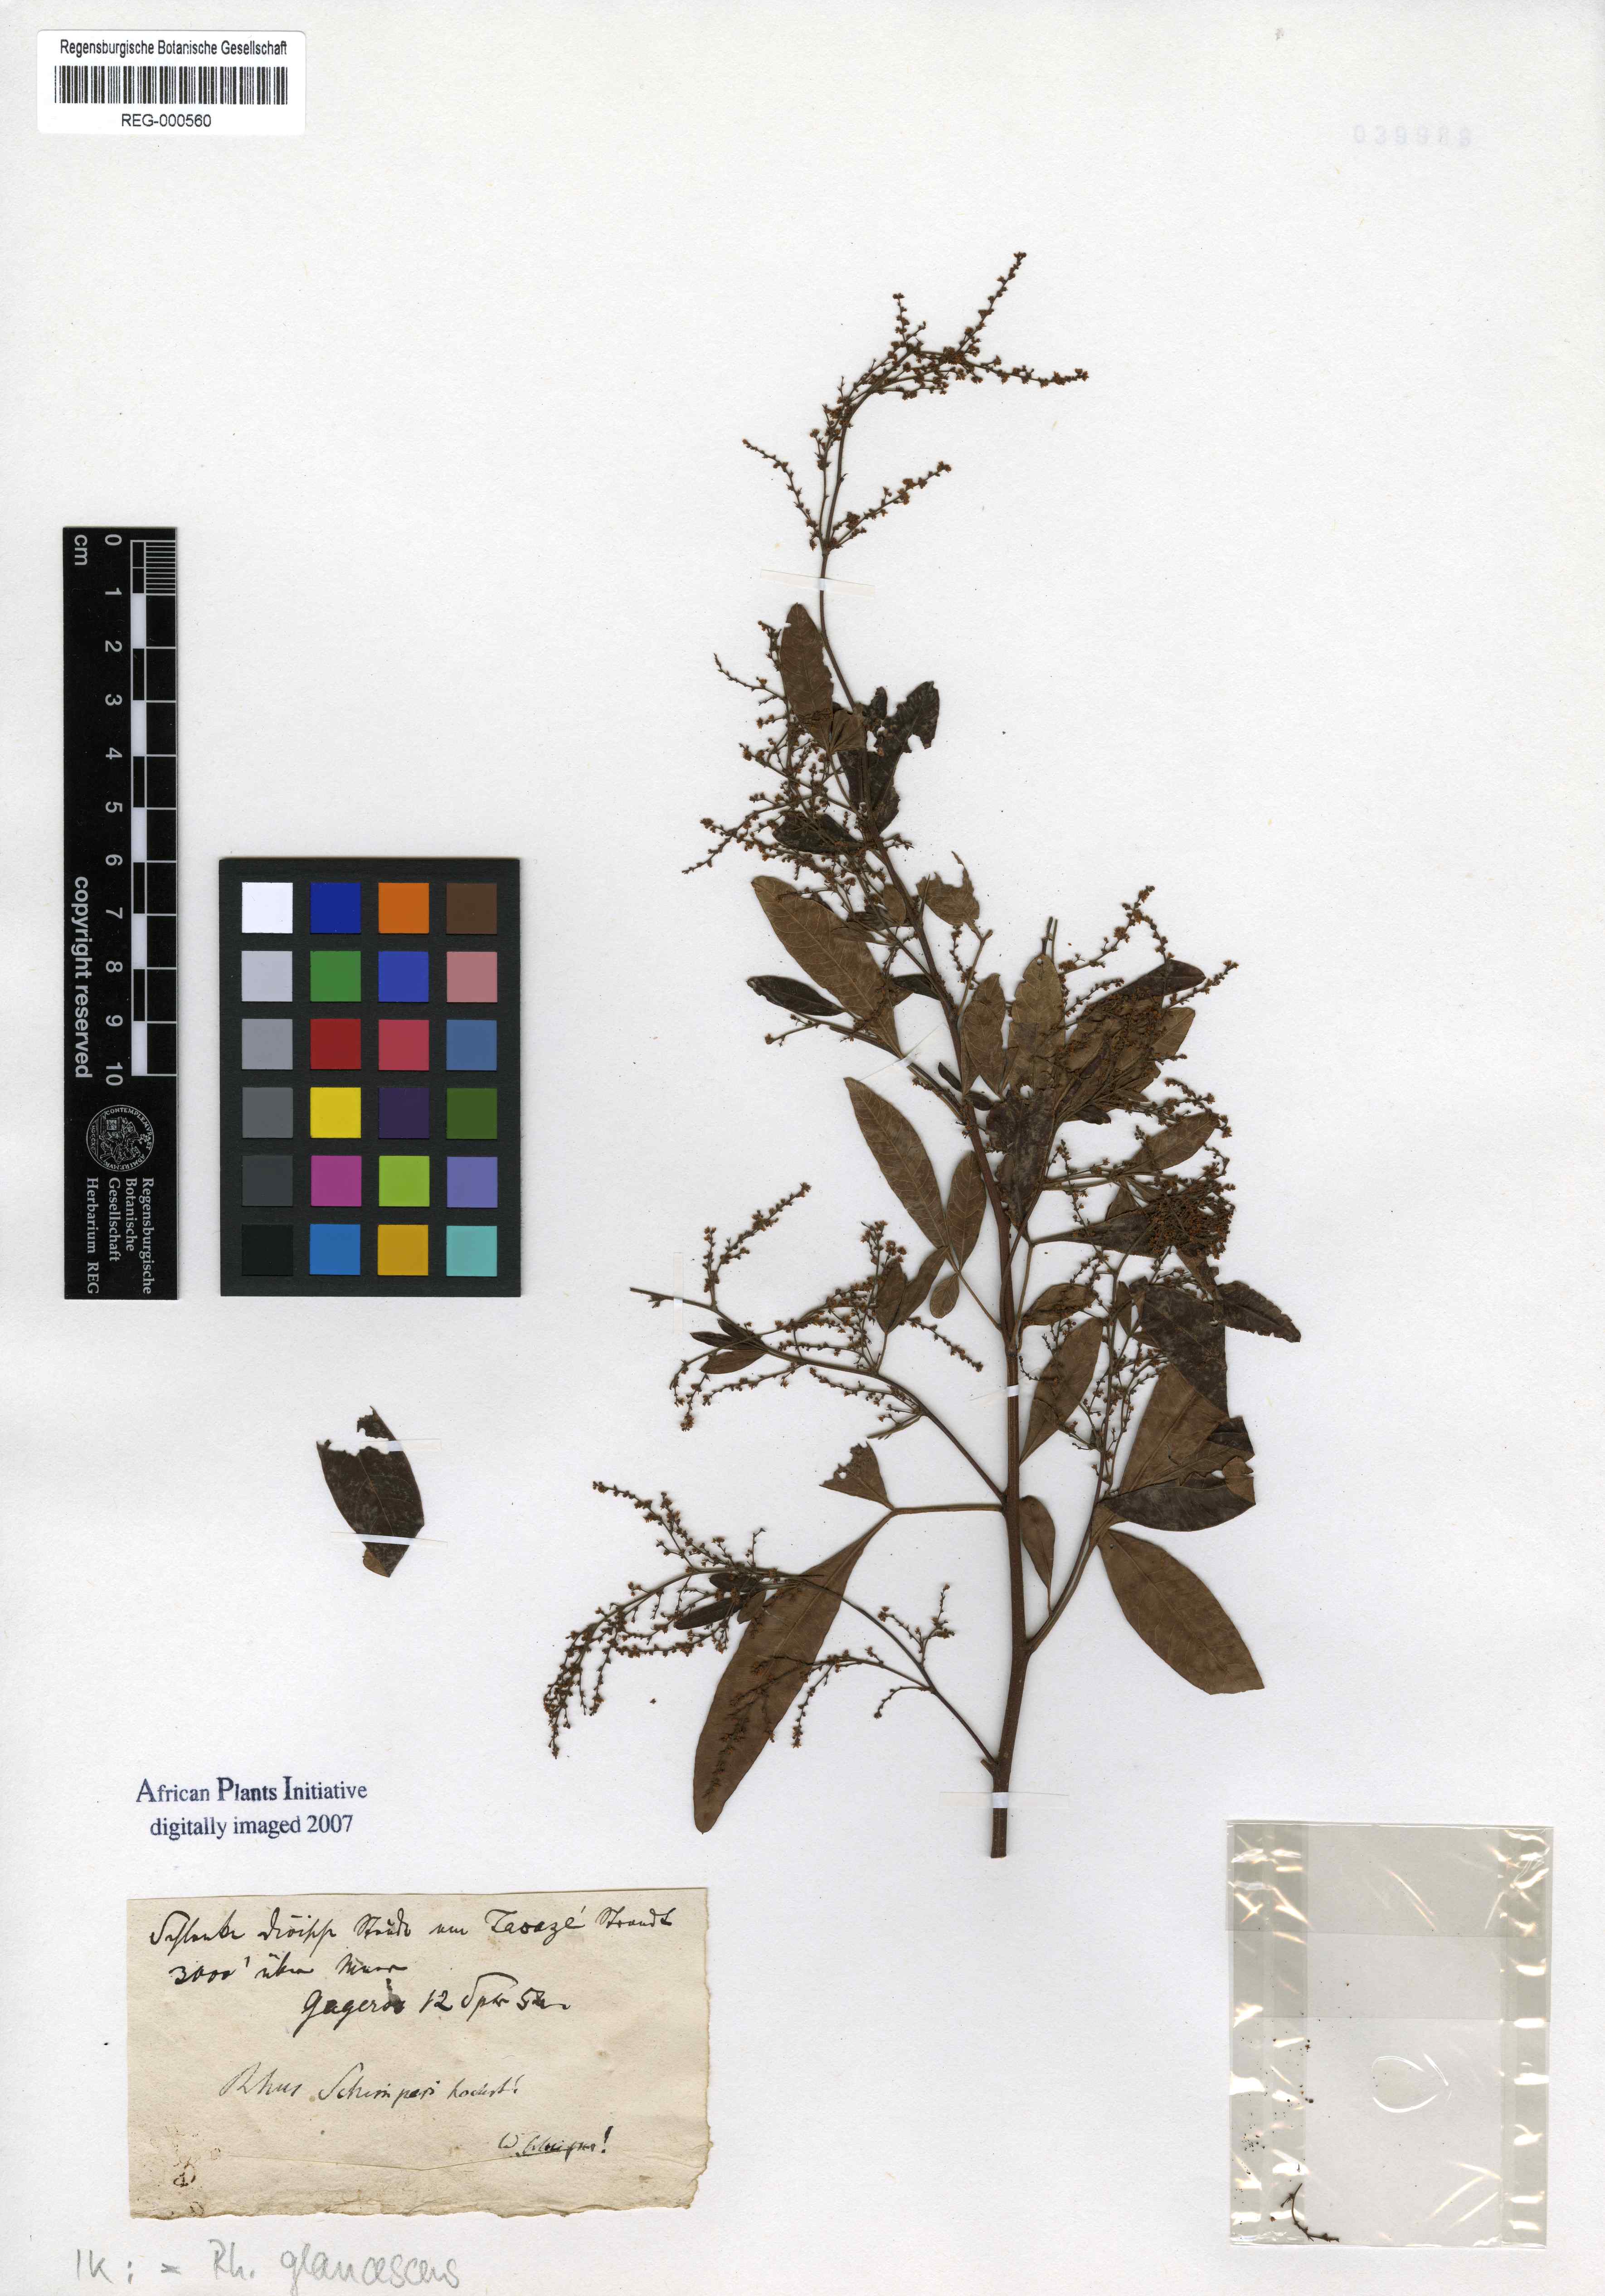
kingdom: Plantae
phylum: Tracheophyta
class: Magnoliopsida
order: Sapindales
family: Anacardiaceae
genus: Searsia
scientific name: Searsia quartiniana
